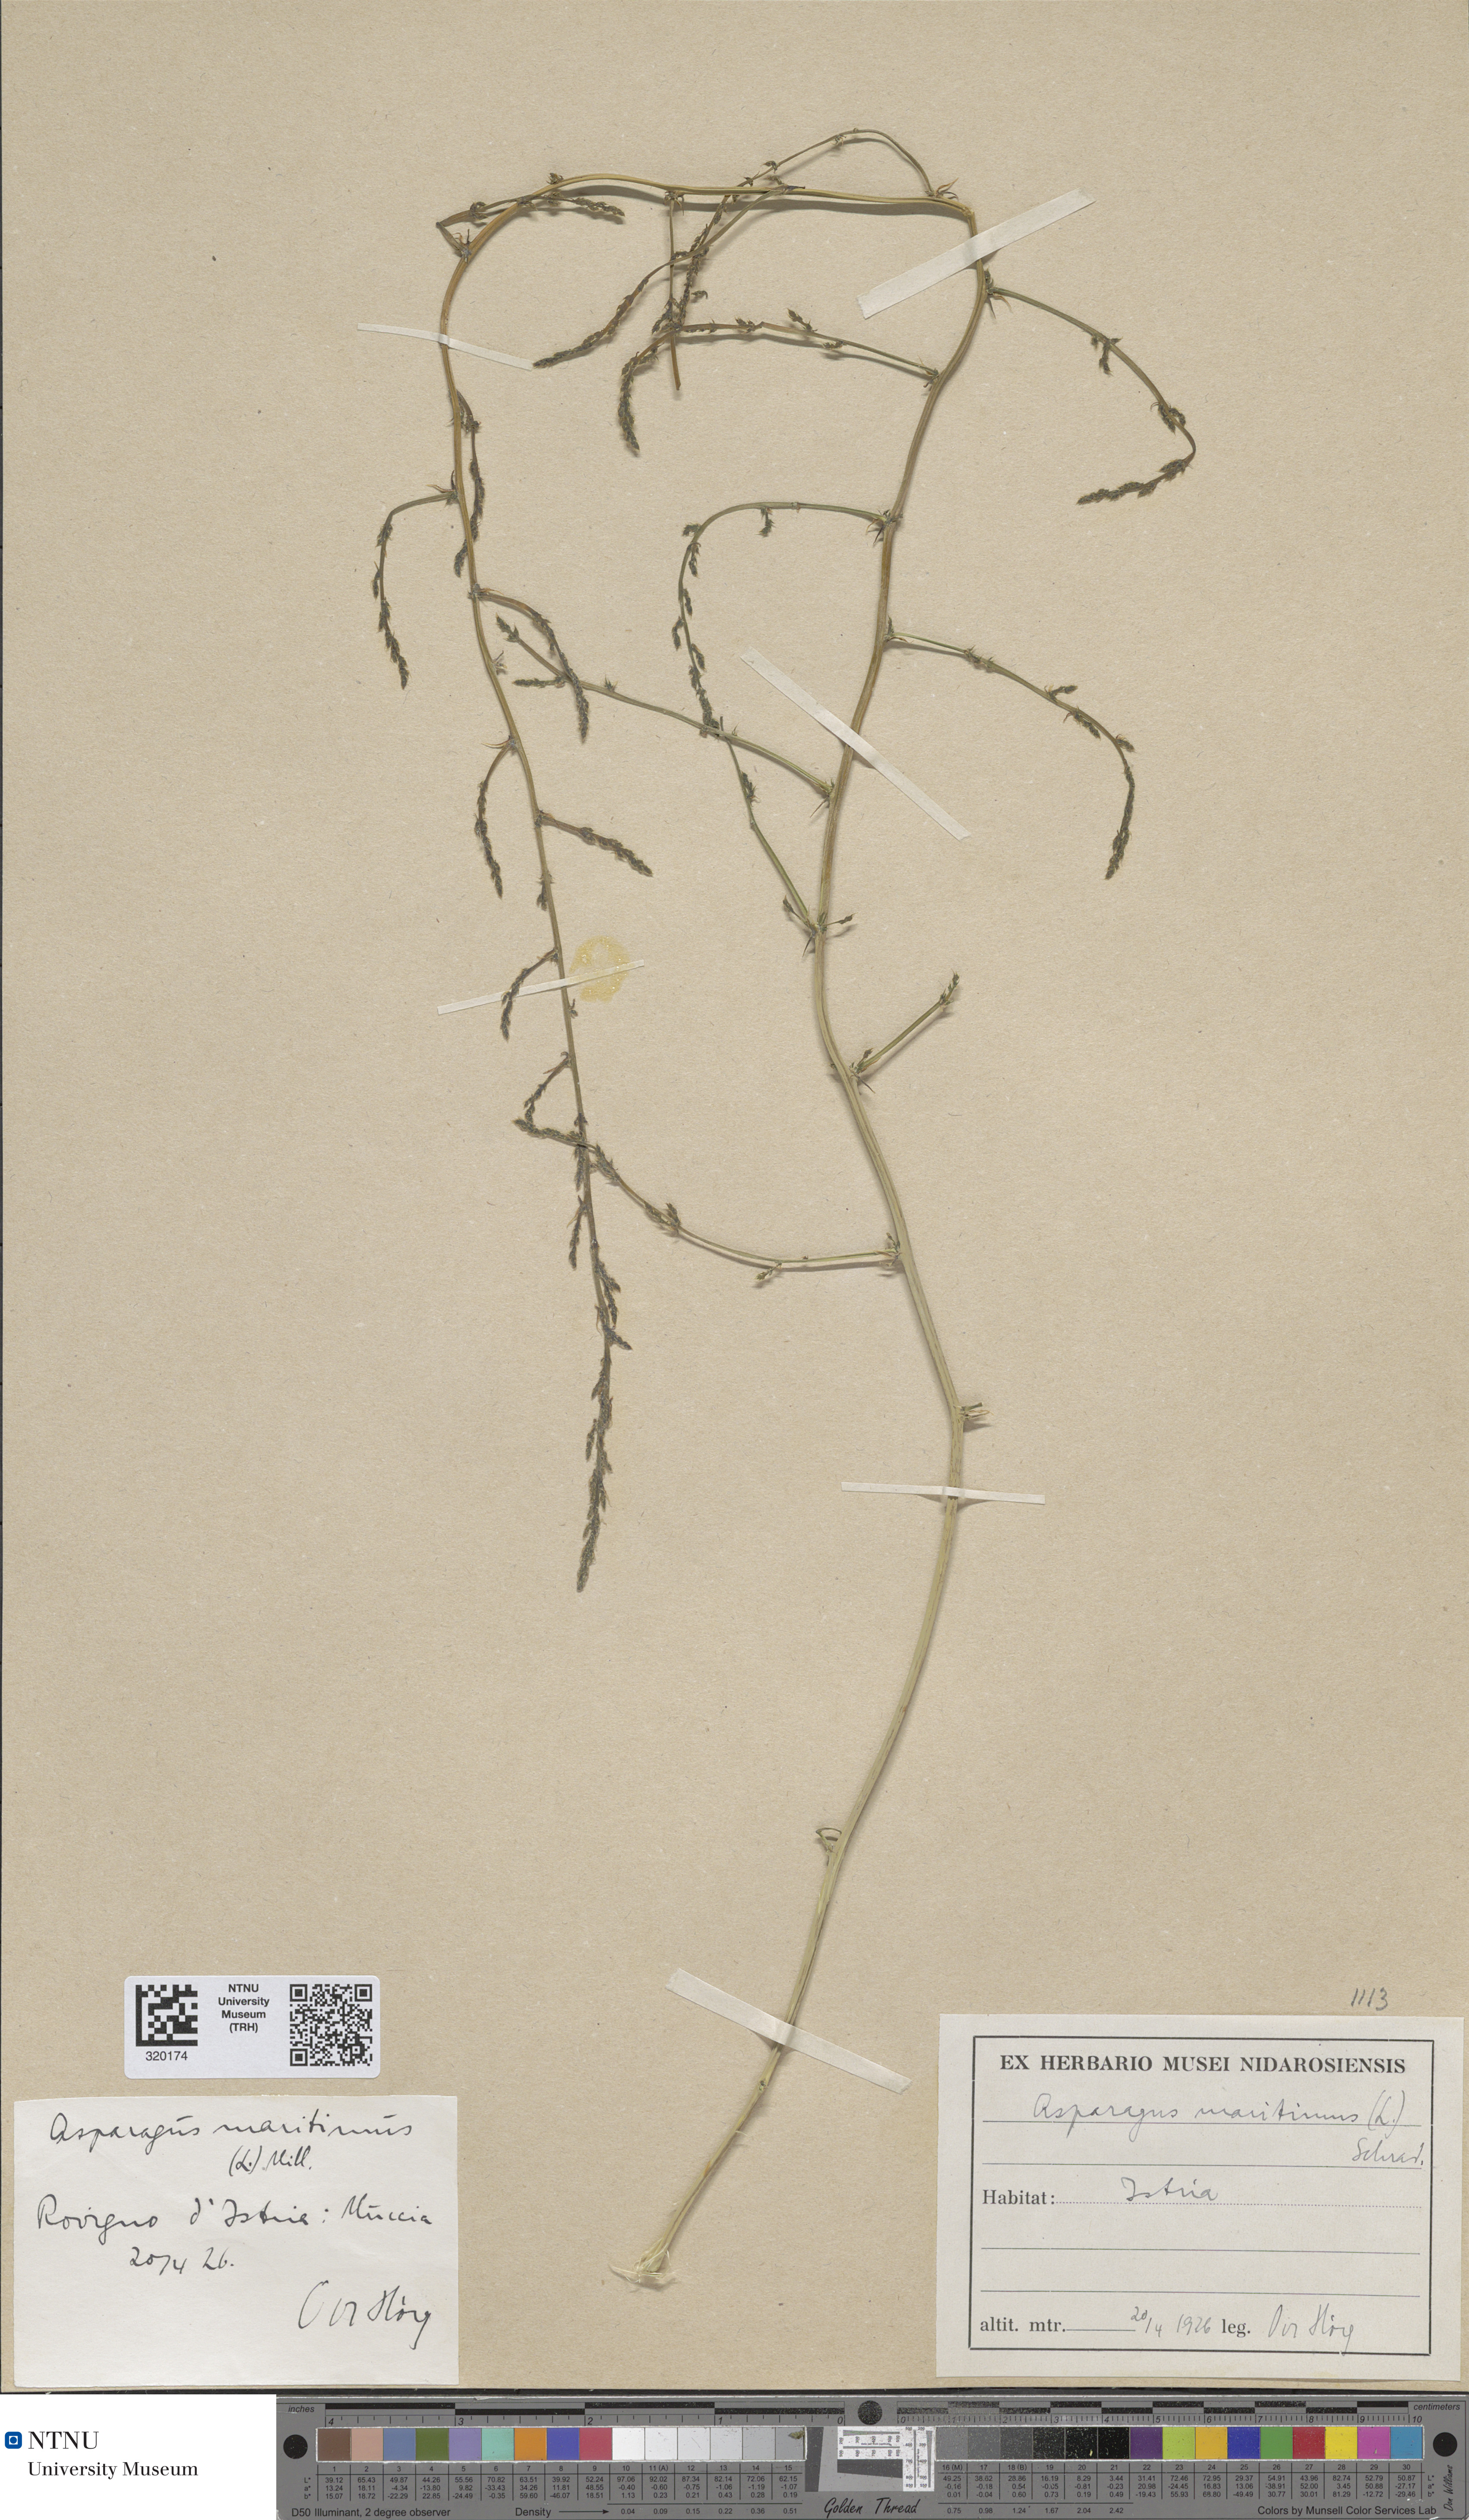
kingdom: Plantae
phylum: Tracheophyta
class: Liliopsida
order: Asparagales
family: Asparagaceae
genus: Asparagus
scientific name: Asparagus maritimus
